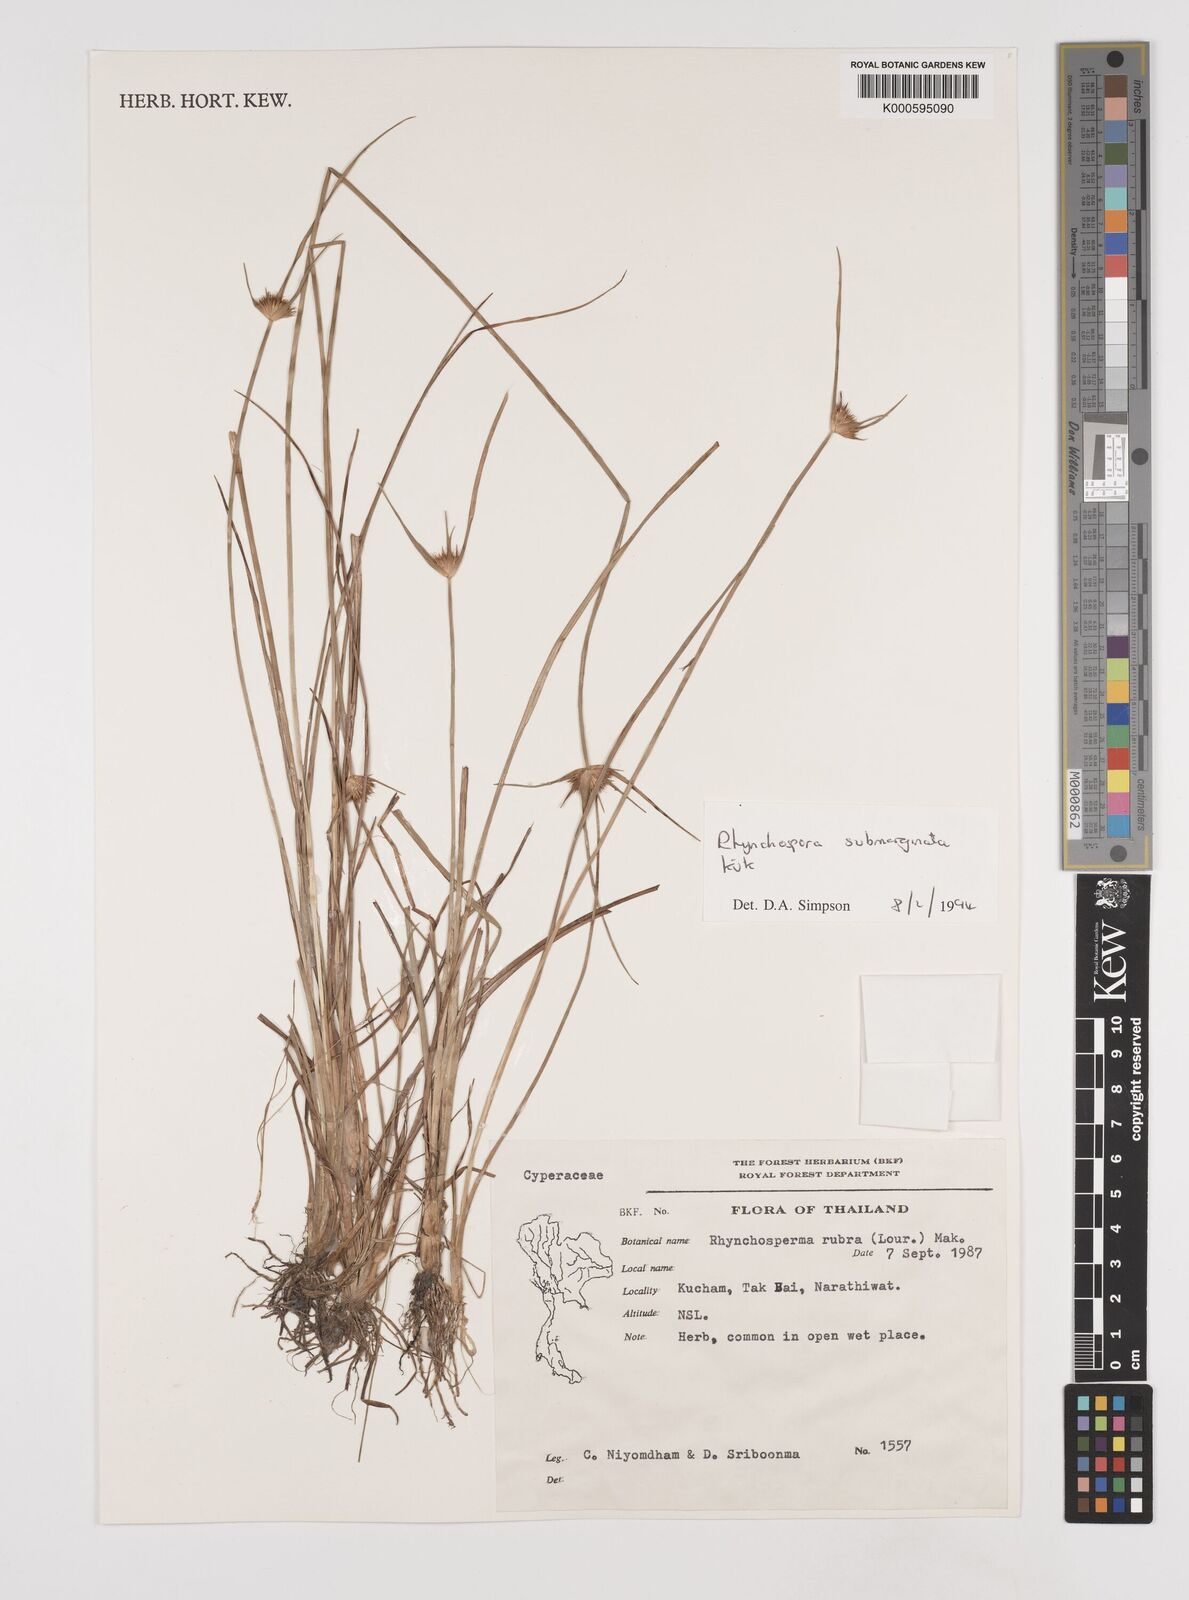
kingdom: Plantae
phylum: Tracheophyta
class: Liliopsida
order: Poales
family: Cyperaceae
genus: Rhynchospora
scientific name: Rhynchospora
